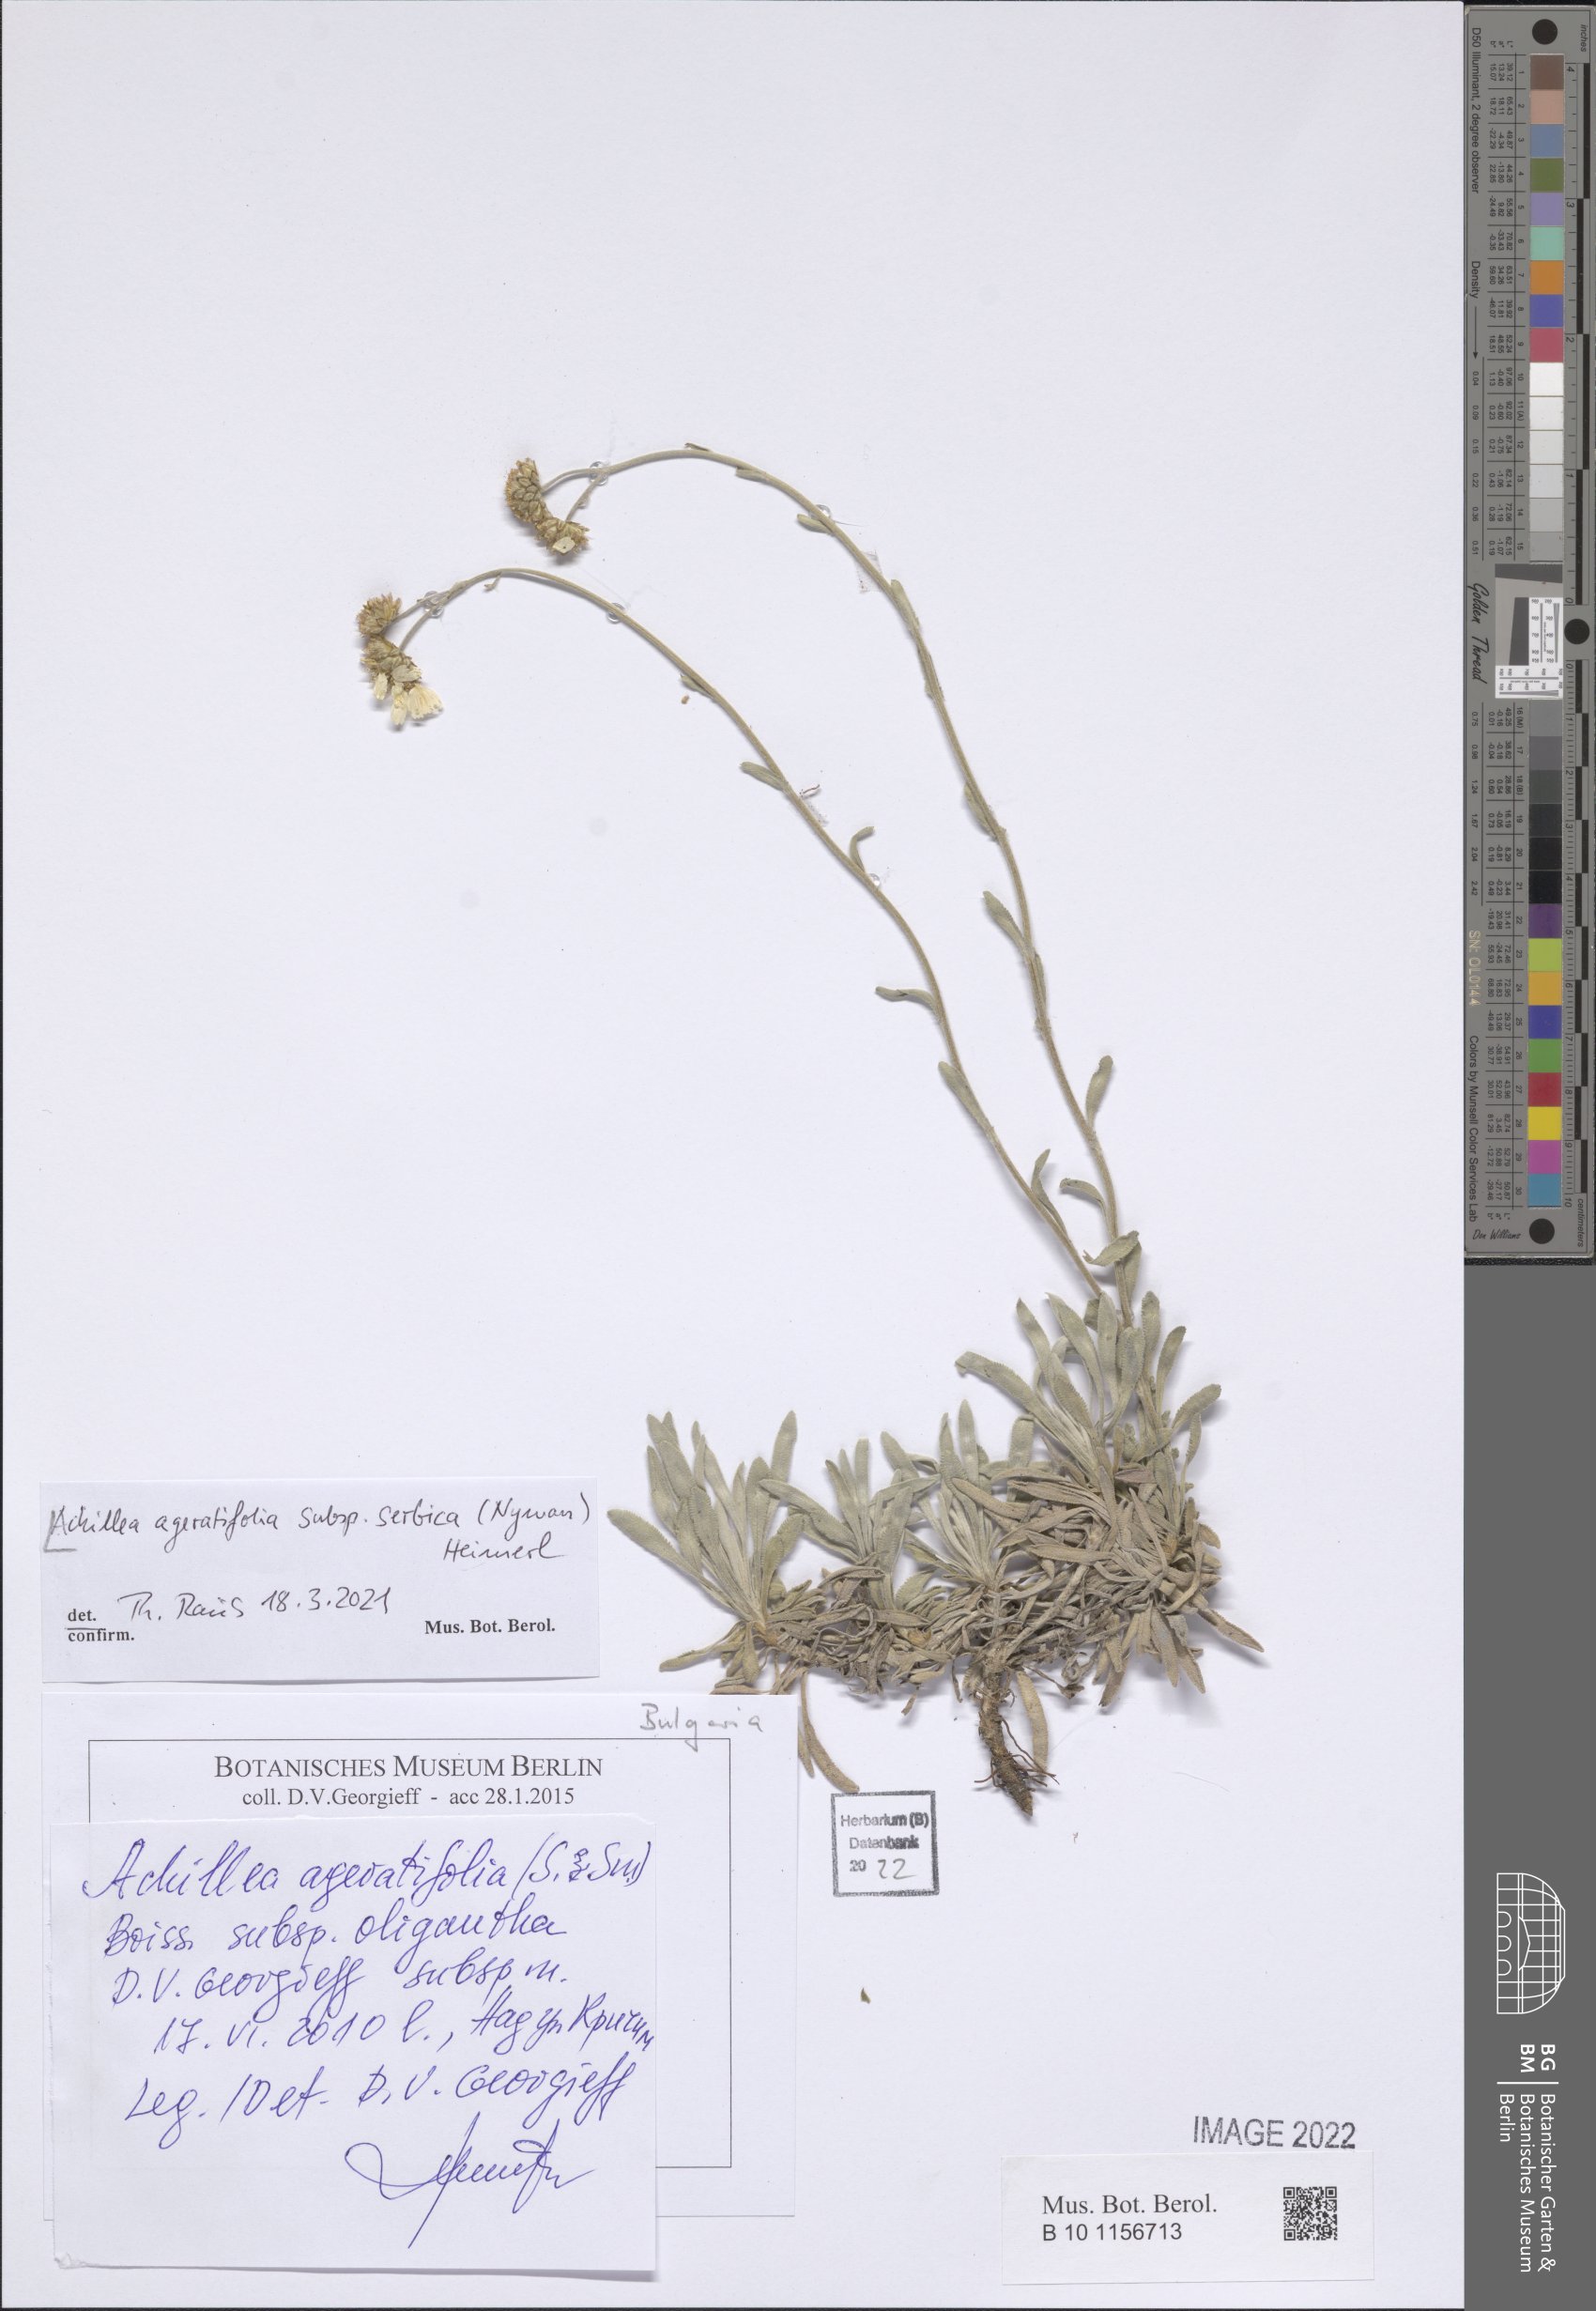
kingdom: Plantae
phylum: Tracheophyta
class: Magnoliopsida
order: Asterales
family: Asteraceae
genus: Achillea
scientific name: Achillea ageratifolia
